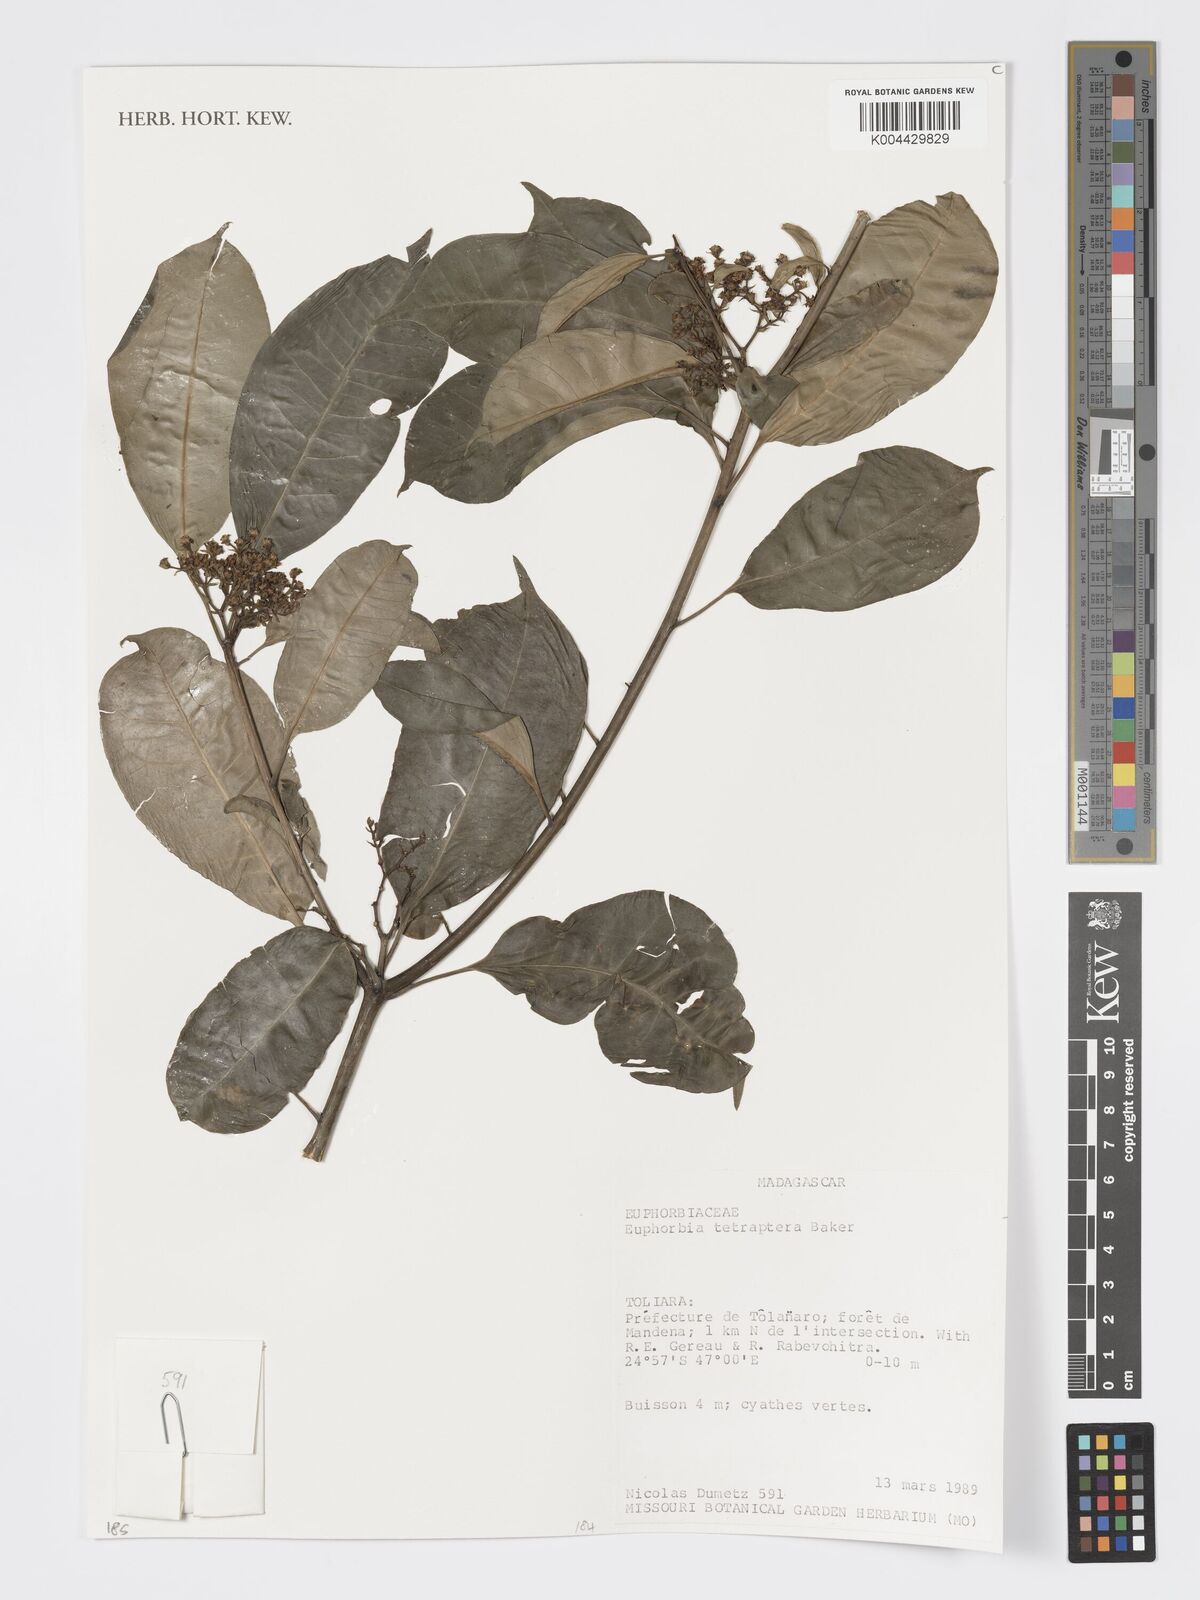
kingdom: Plantae
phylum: Tracheophyta
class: Magnoliopsida
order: Malpighiales
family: Euphorbiaceae
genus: Euphorbia
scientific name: Euphorbia tetraptera
